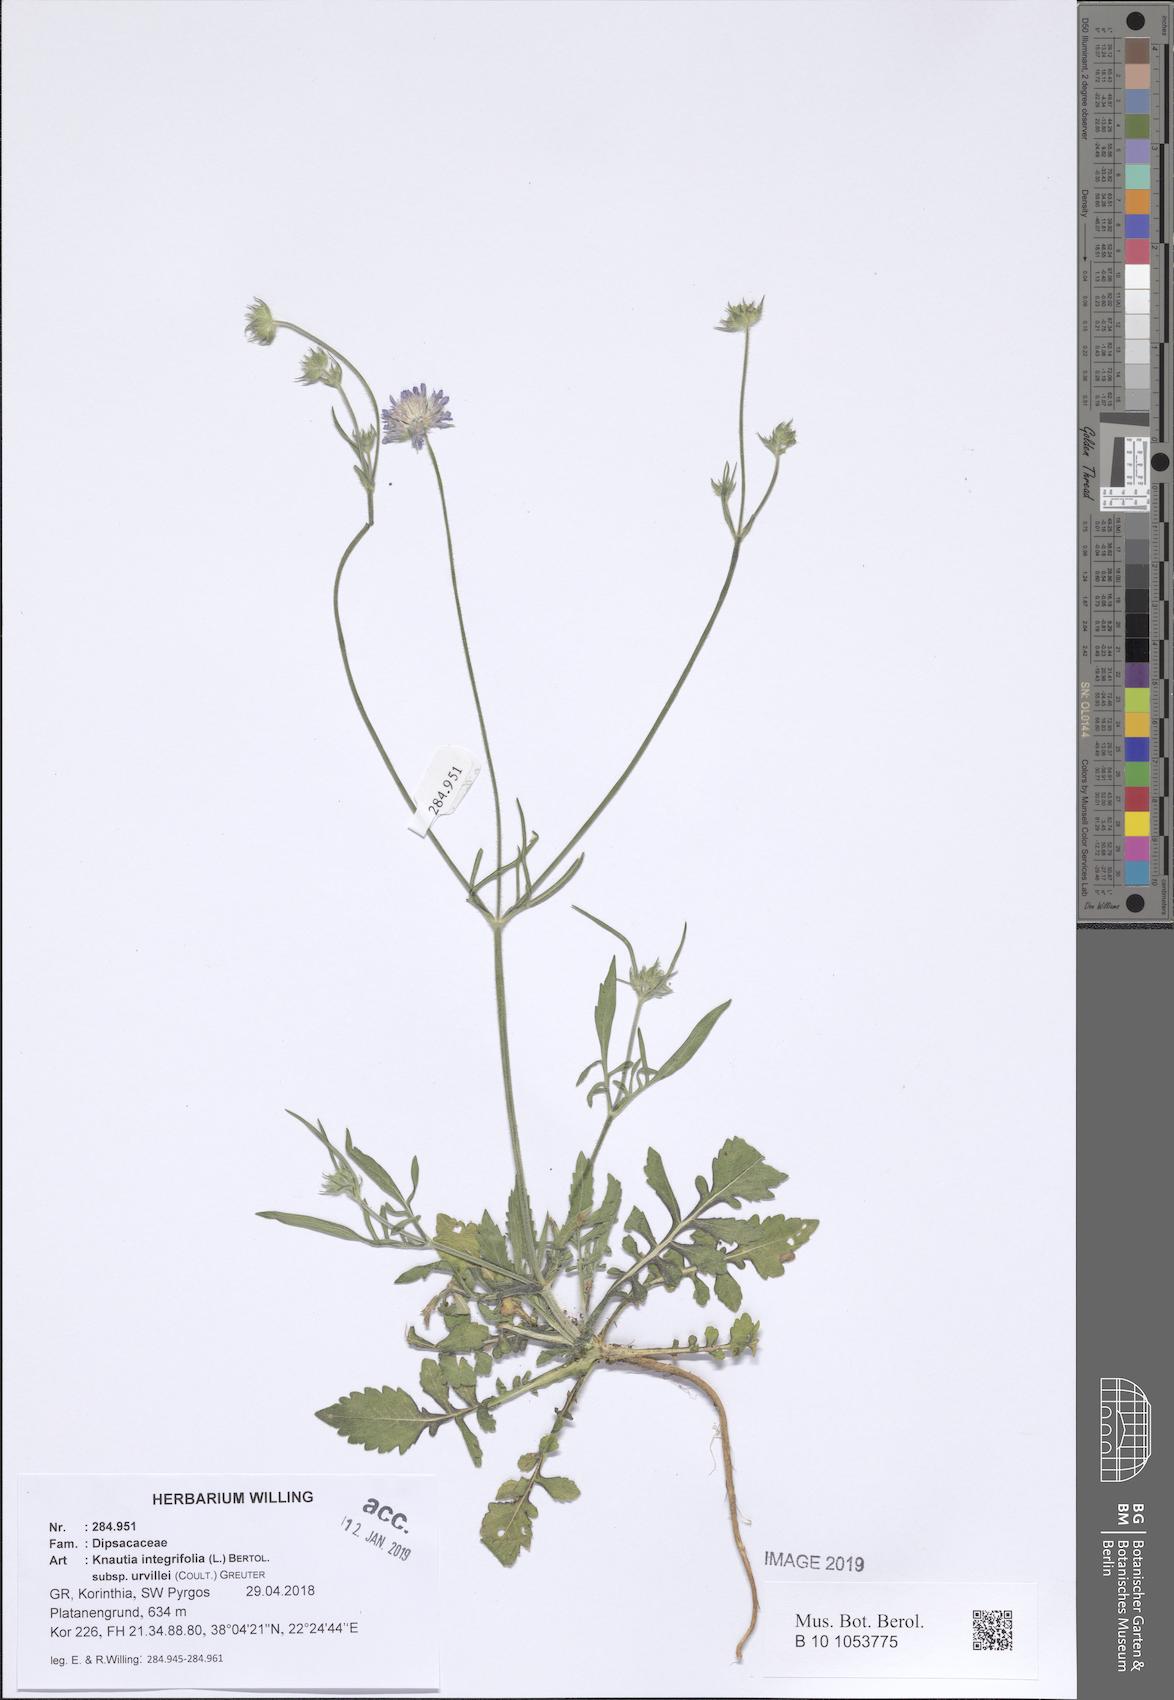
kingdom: Plantae
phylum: Tracheophyta
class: Magnoliopsida
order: Dipsacales
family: Caprifoliaceae
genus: Knautia
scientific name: Knautia integrifolia
